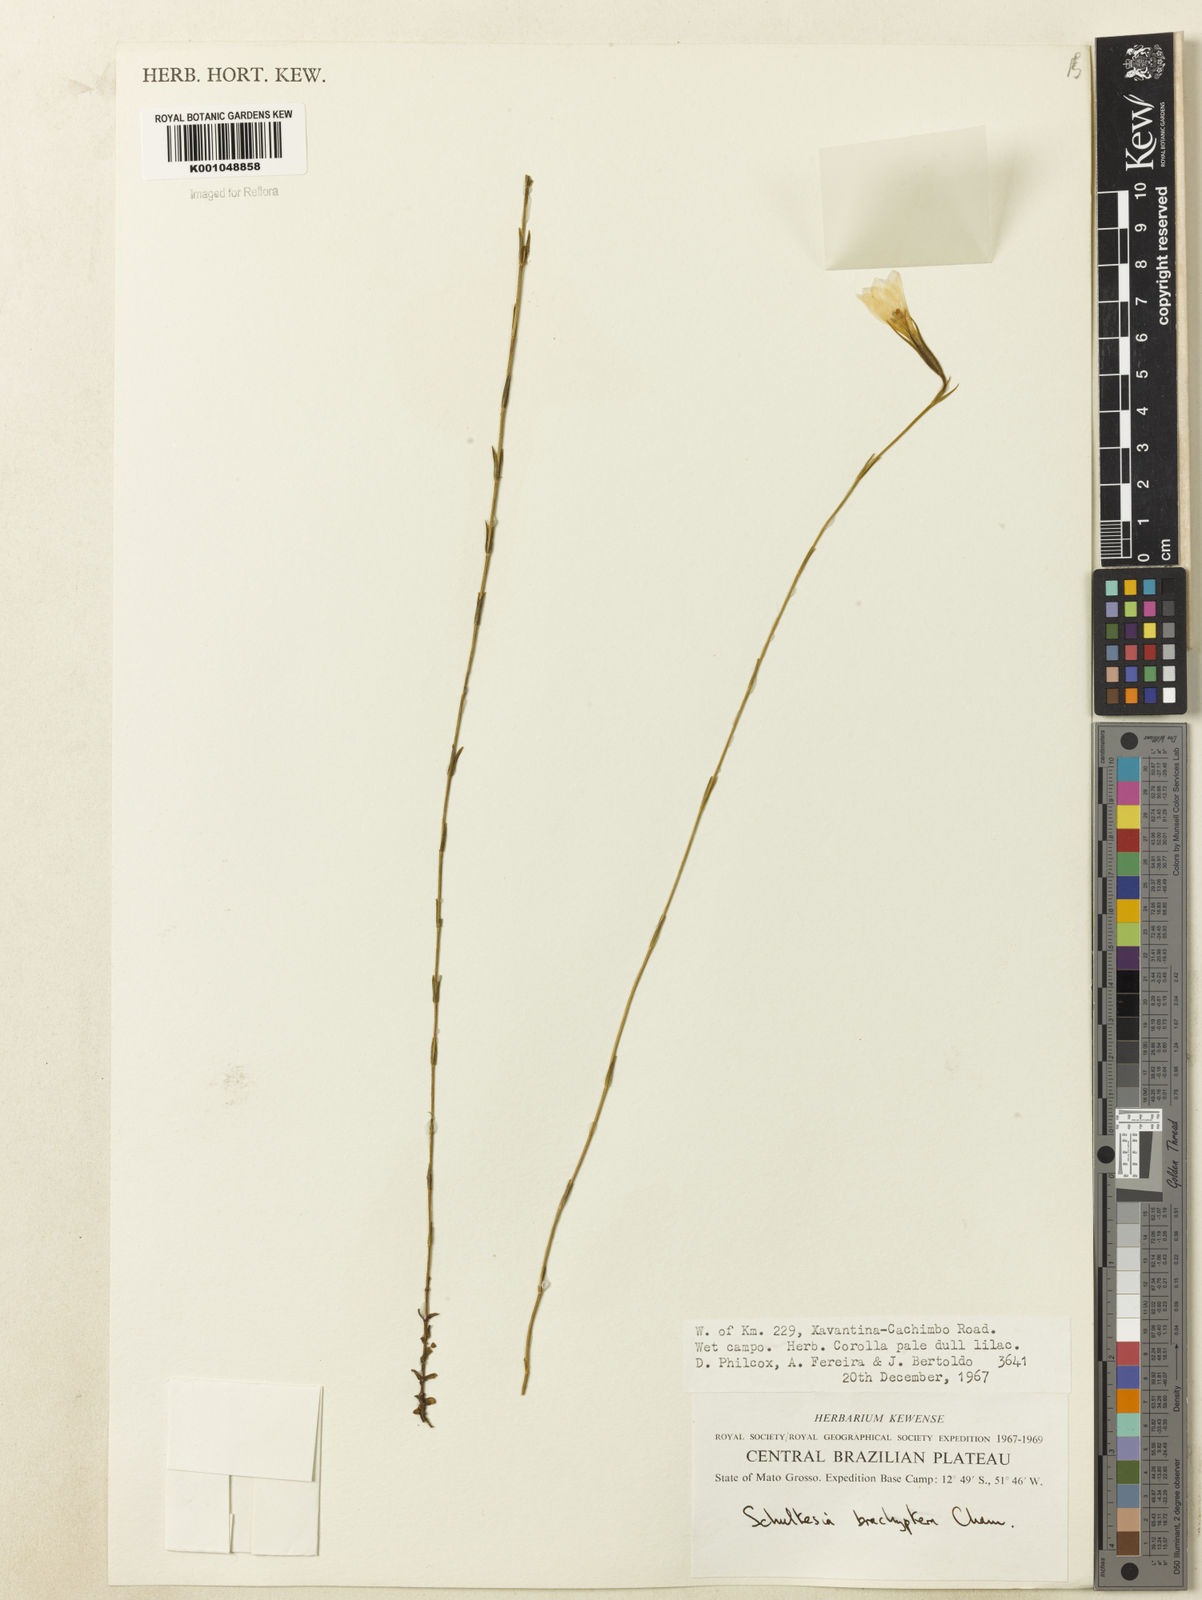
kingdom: Plantae
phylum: Tracheophyta
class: Magnoliopsida
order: Gentianales
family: Gentianaceae
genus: Schultesia
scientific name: Schultesia brachyptera
